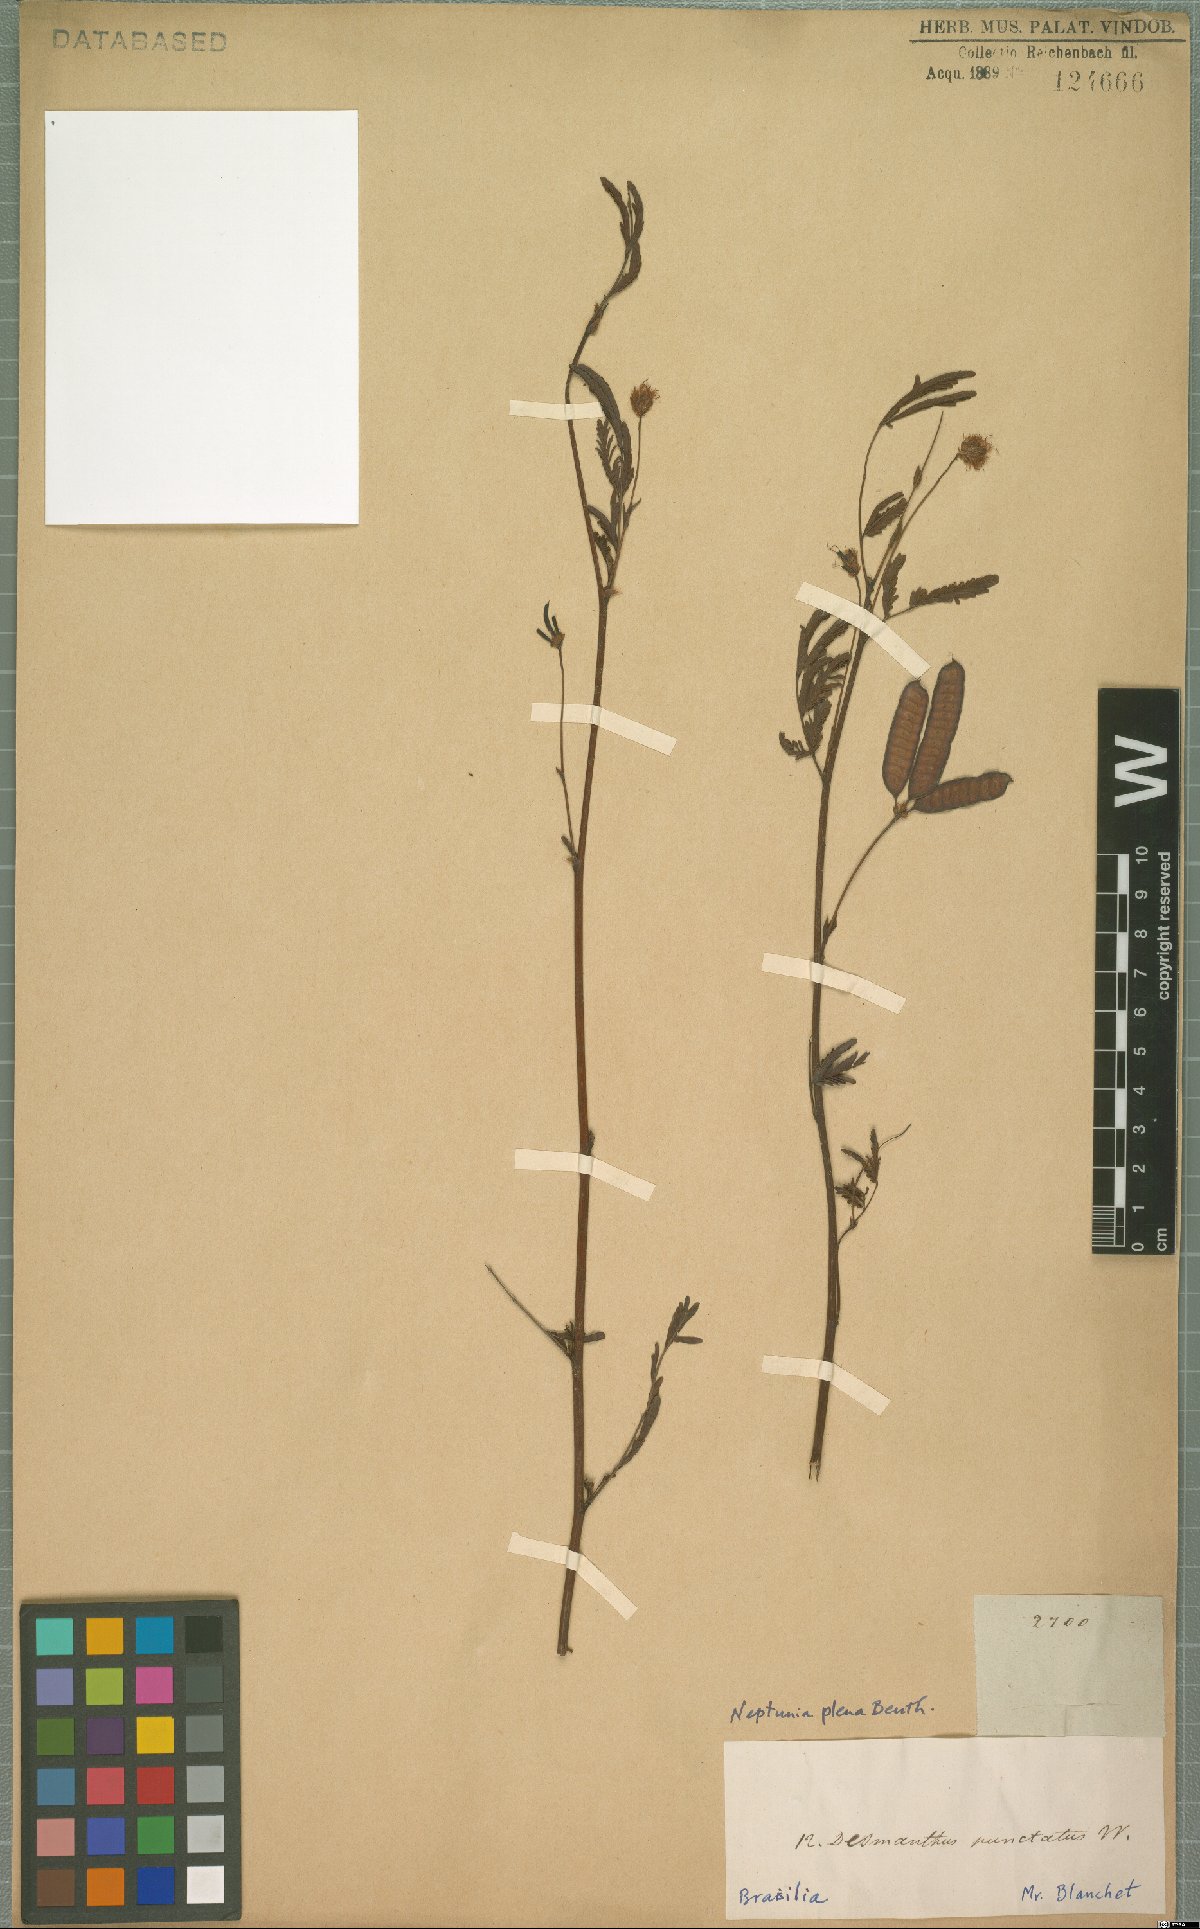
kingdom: Plantae
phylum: Tracheophyta
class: Magnoliopsida
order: Fabales
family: Fabaceae
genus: Neptunia
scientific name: Neptunia plena
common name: Dead and awake
